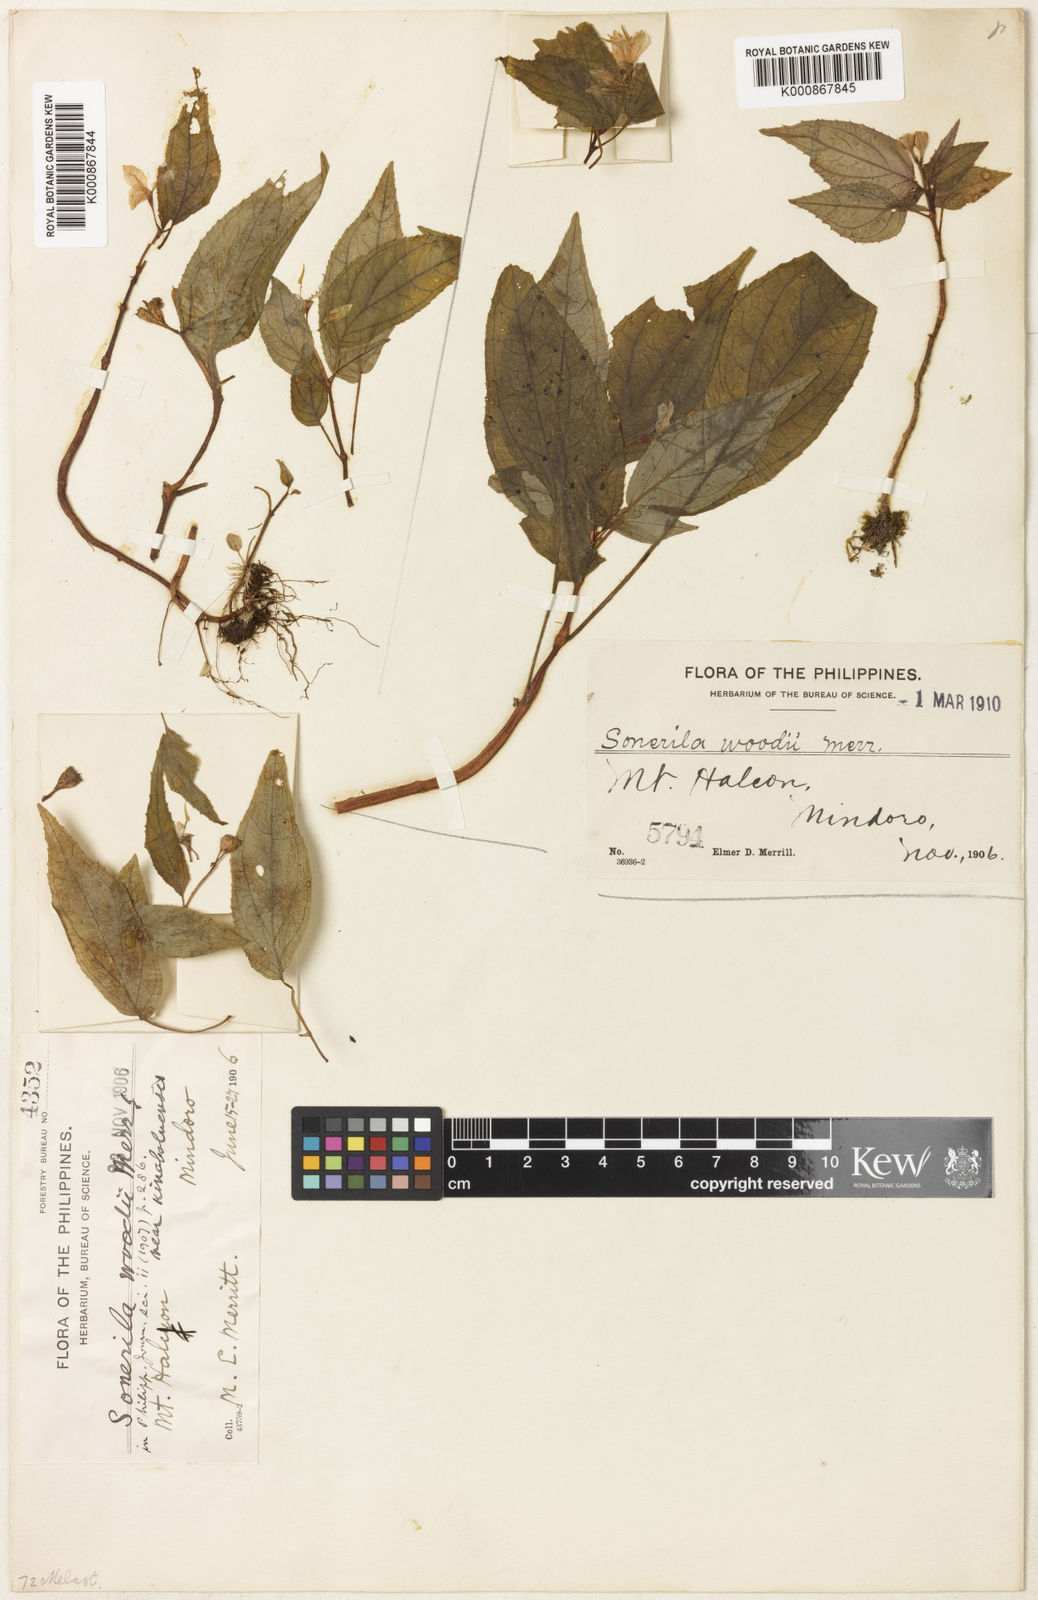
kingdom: Plantae
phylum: Tracheophyta
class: Magnoliopsida
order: Myrtales
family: Melastomataceae
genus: Sonerila
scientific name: Sonerila woodii
